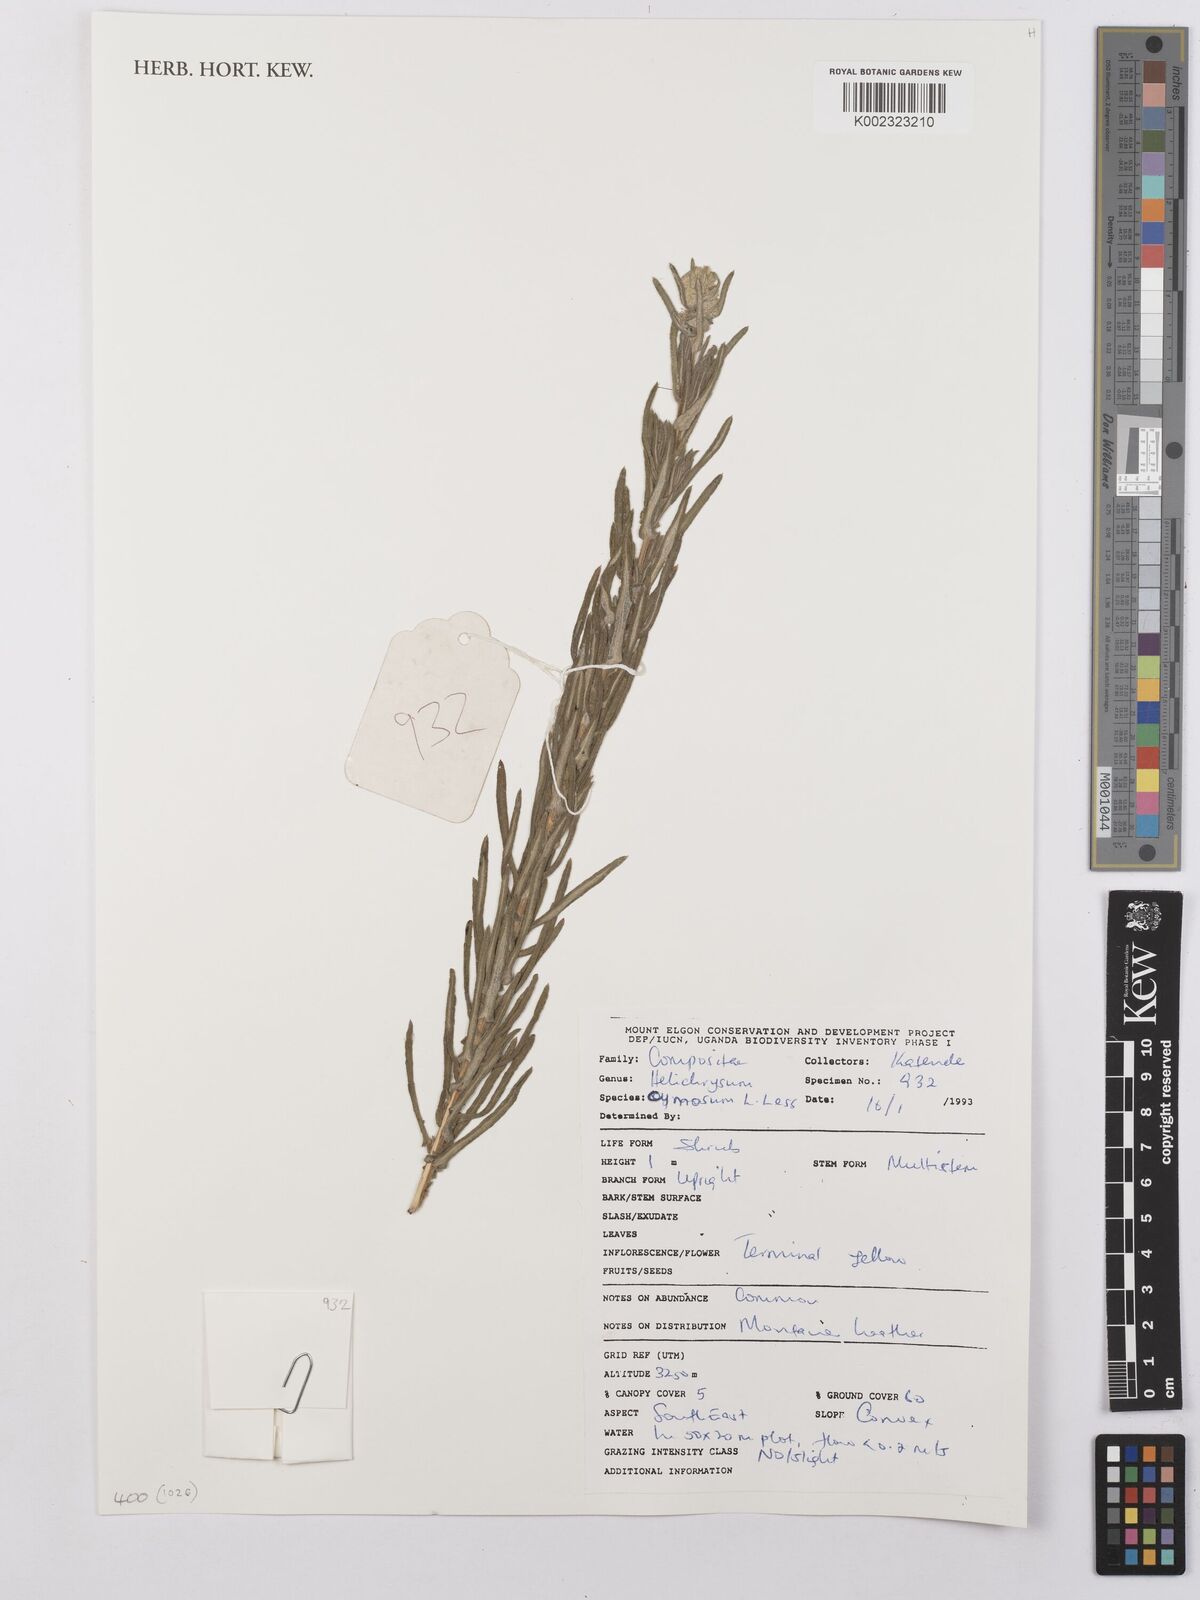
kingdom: Plantae
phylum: Tracheophyta
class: Magnoliopsida
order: Asterales
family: Asteraceae
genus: Helichrysum
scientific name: Helichrysum forskahlii
